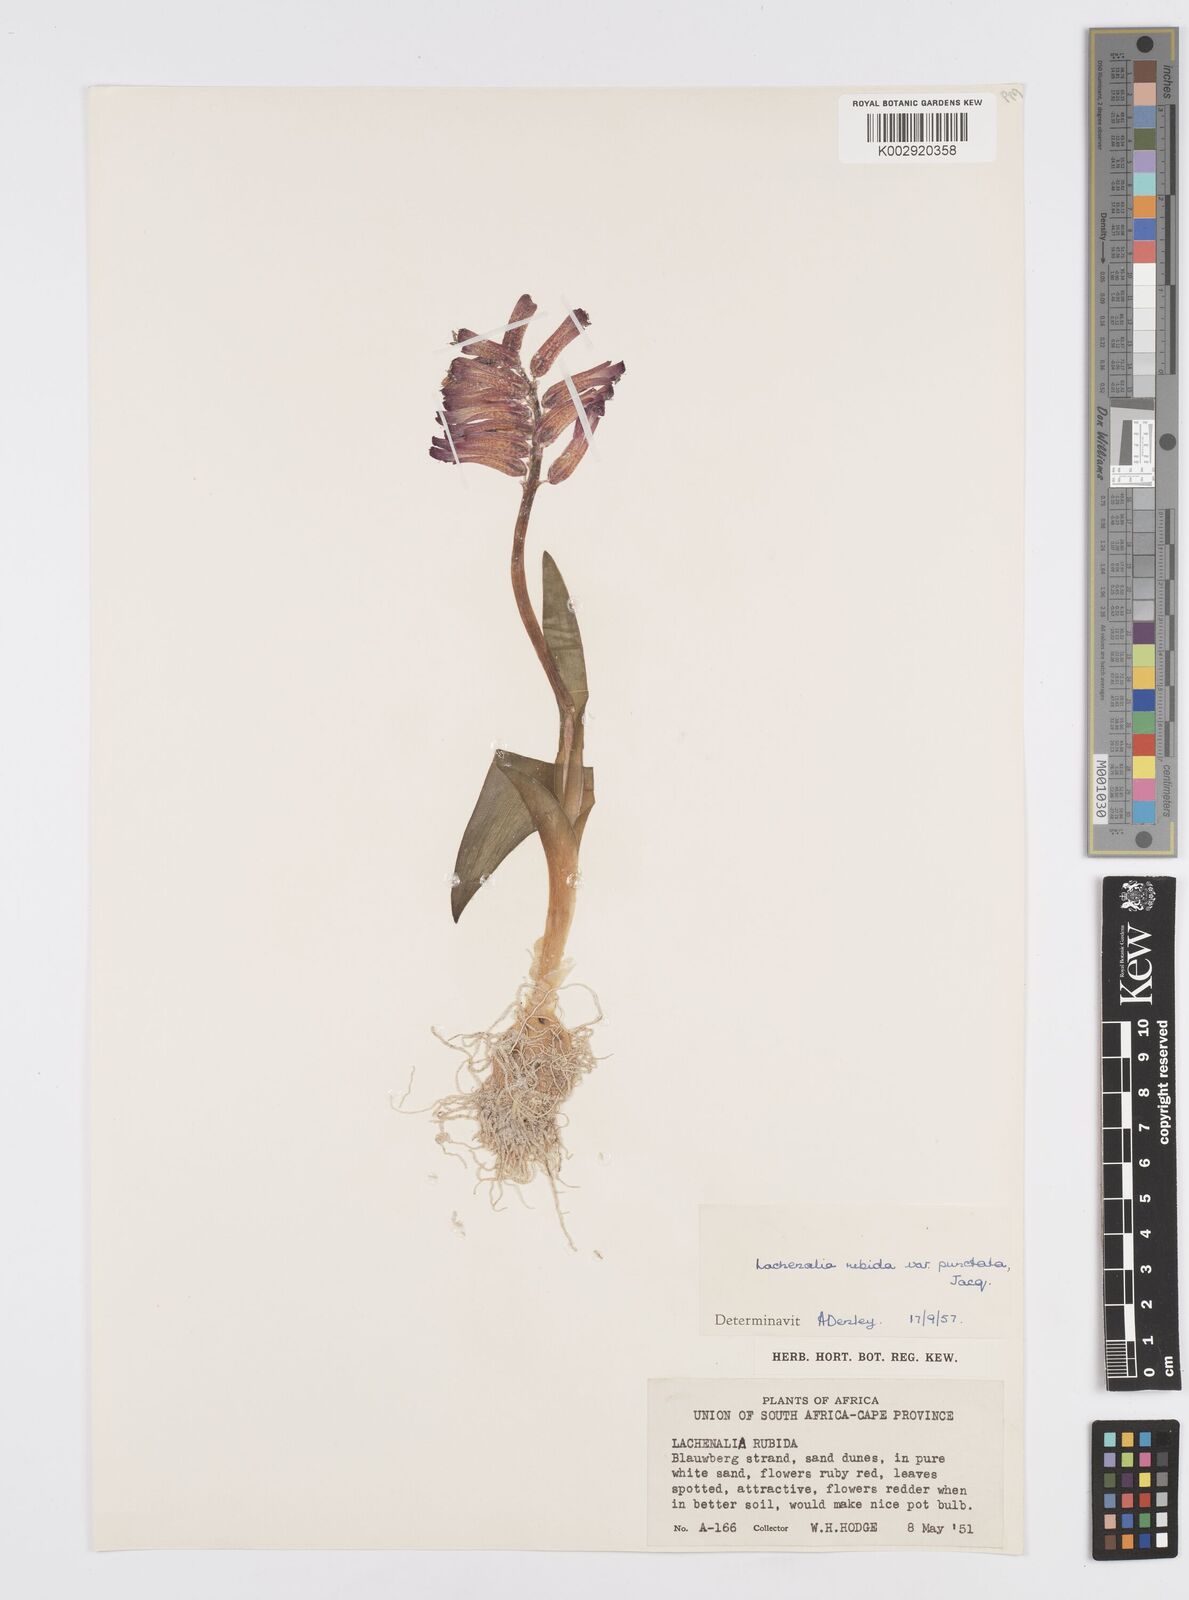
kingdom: Plantae
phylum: Tracheophyta
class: Liliopsida
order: Asparagales
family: Asparagaceae
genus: Lachenalia
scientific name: Lachenalia punctata
